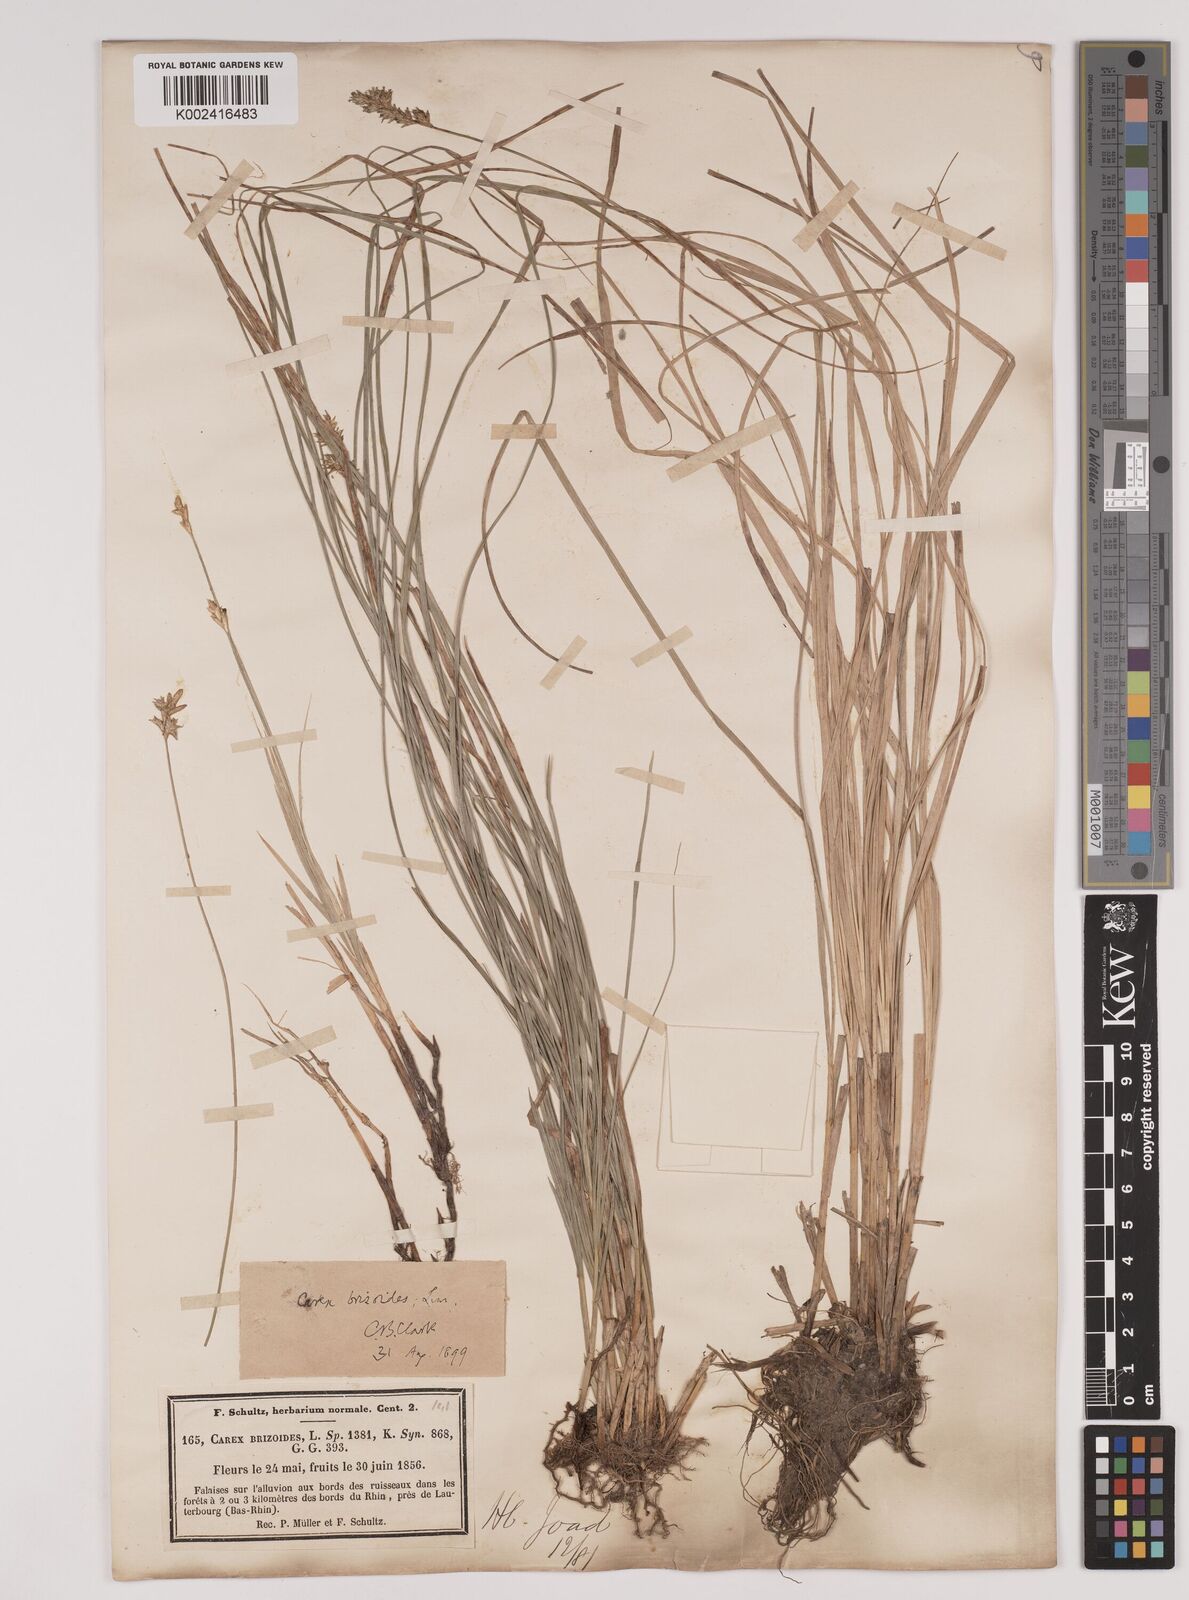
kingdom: Plantae
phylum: Tracheophyta
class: Liliopsida
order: Poales
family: Cyperaceae
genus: Carex
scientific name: Carex brizoides
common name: Quaking-grass sedge
